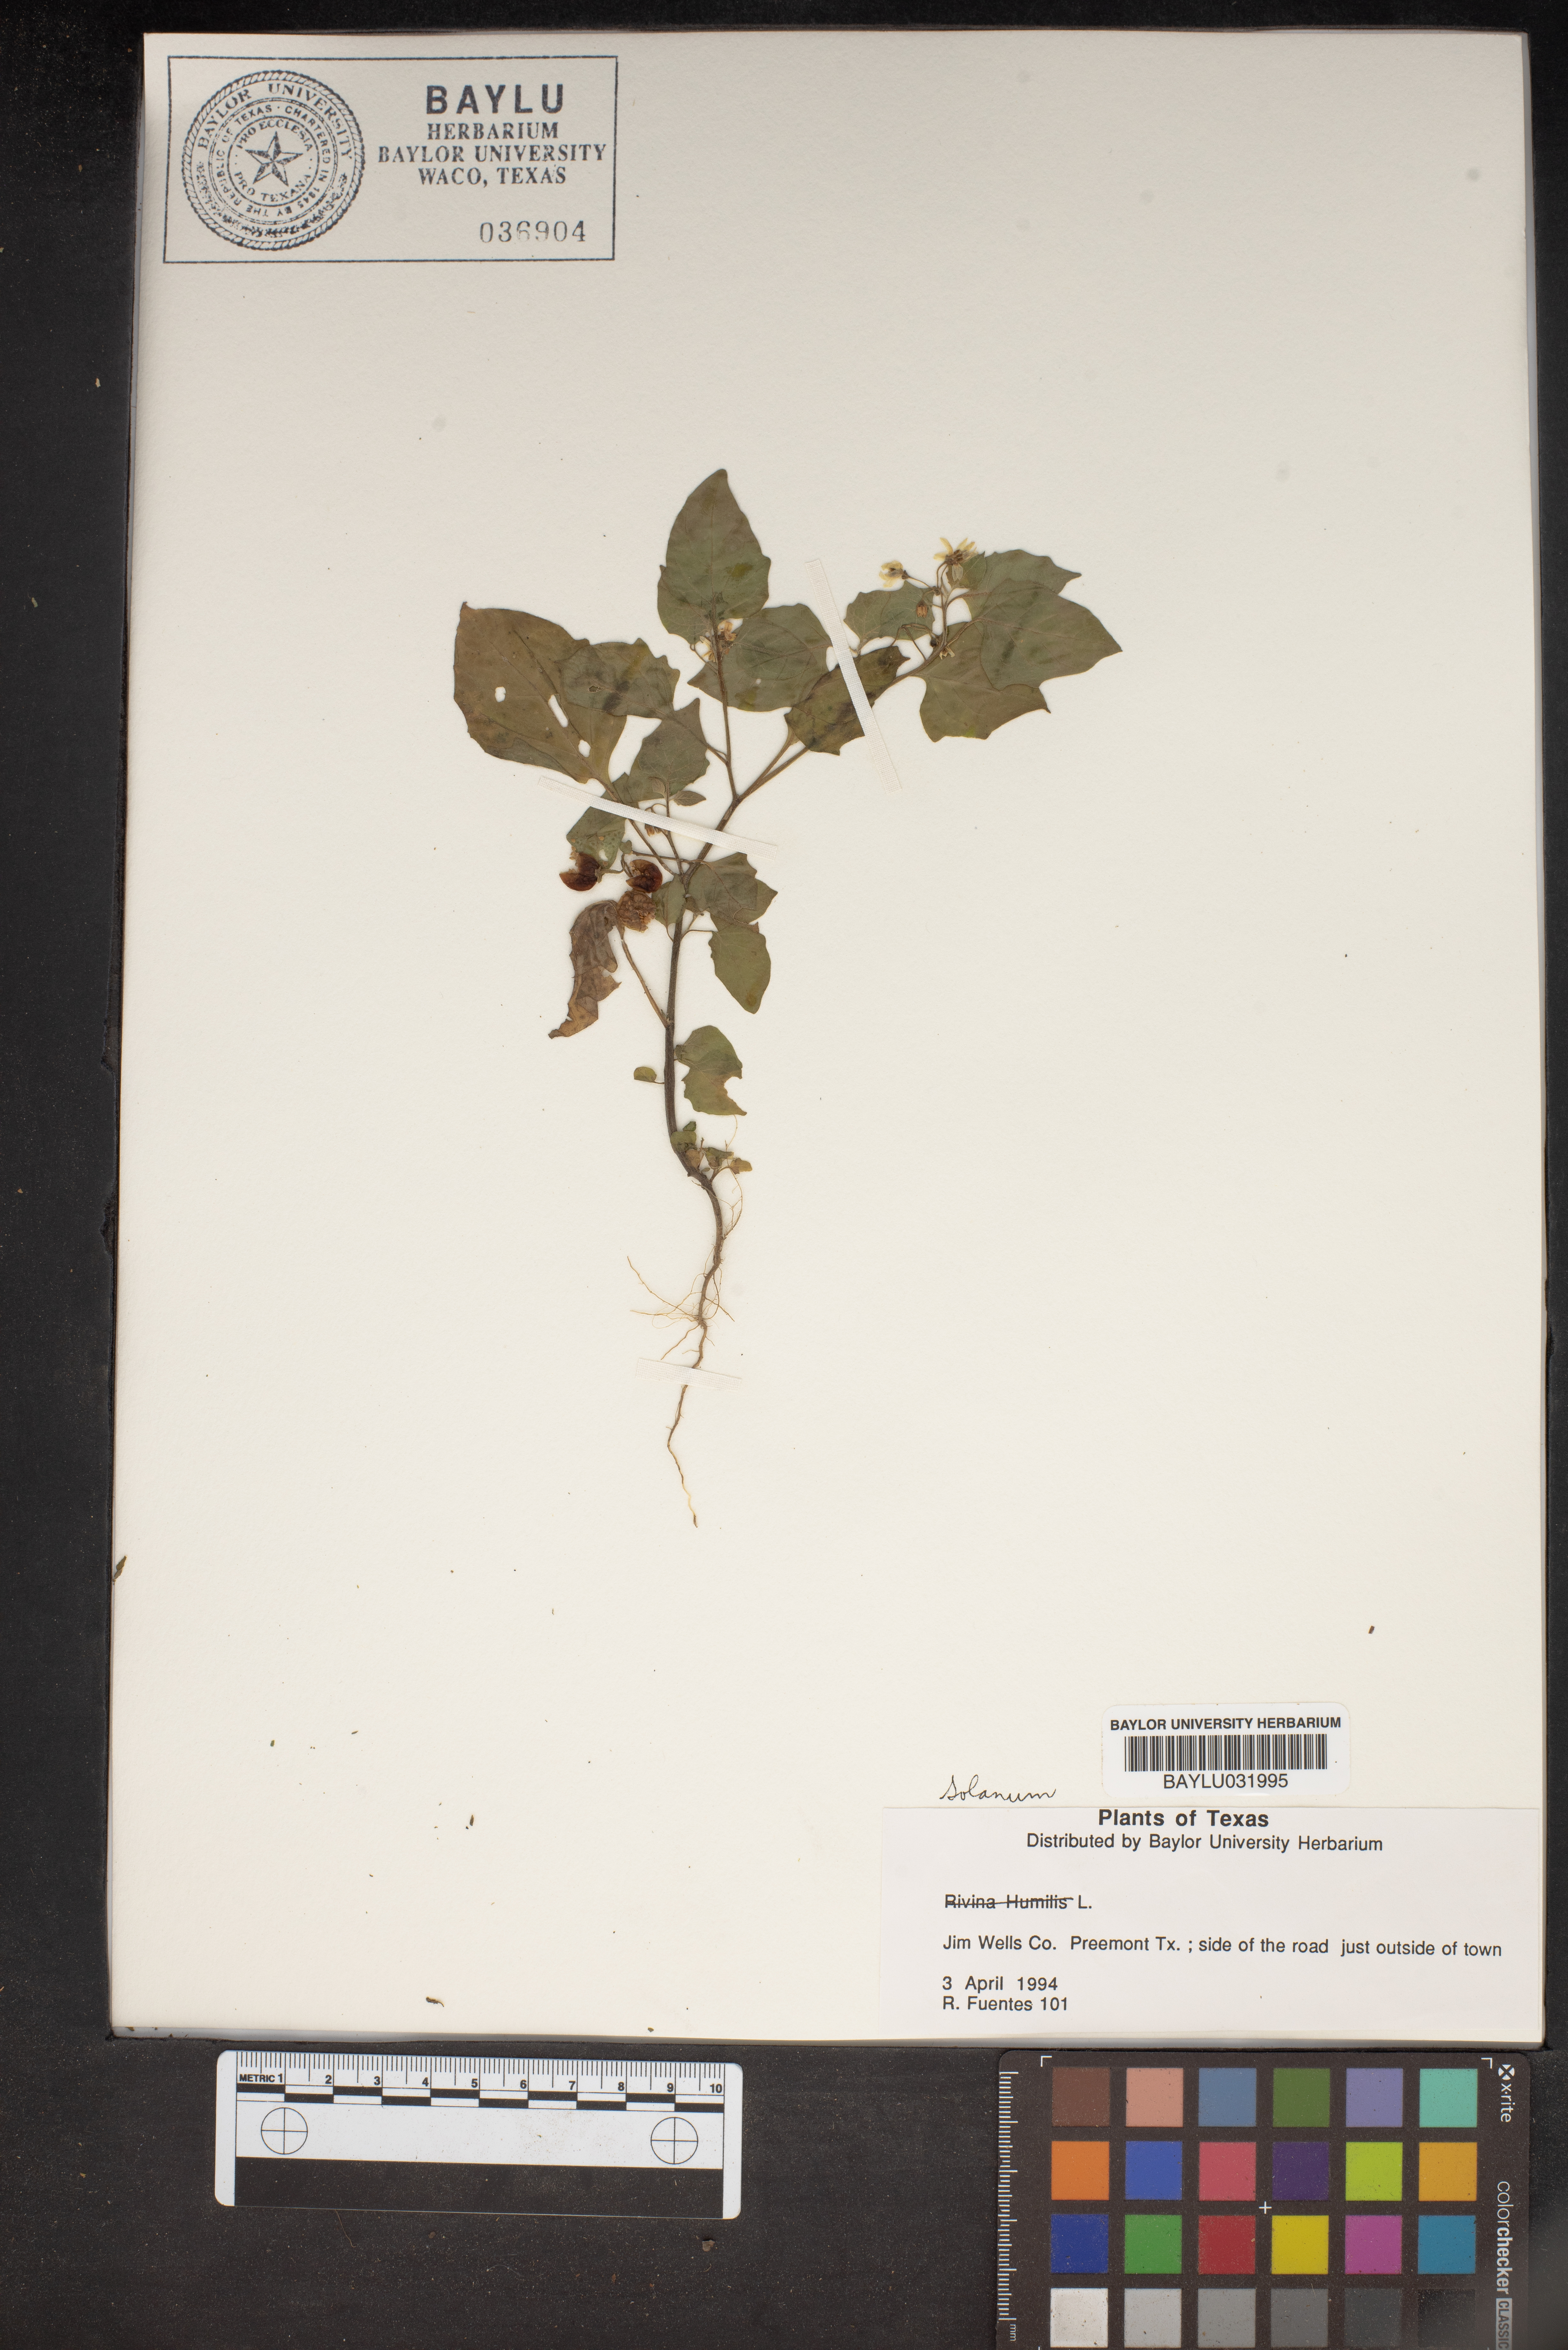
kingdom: Plantae
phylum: Tracheophyta
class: Magnoliopsida
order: Solanales
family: Solanaceae
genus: Solanum
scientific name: Solanum
